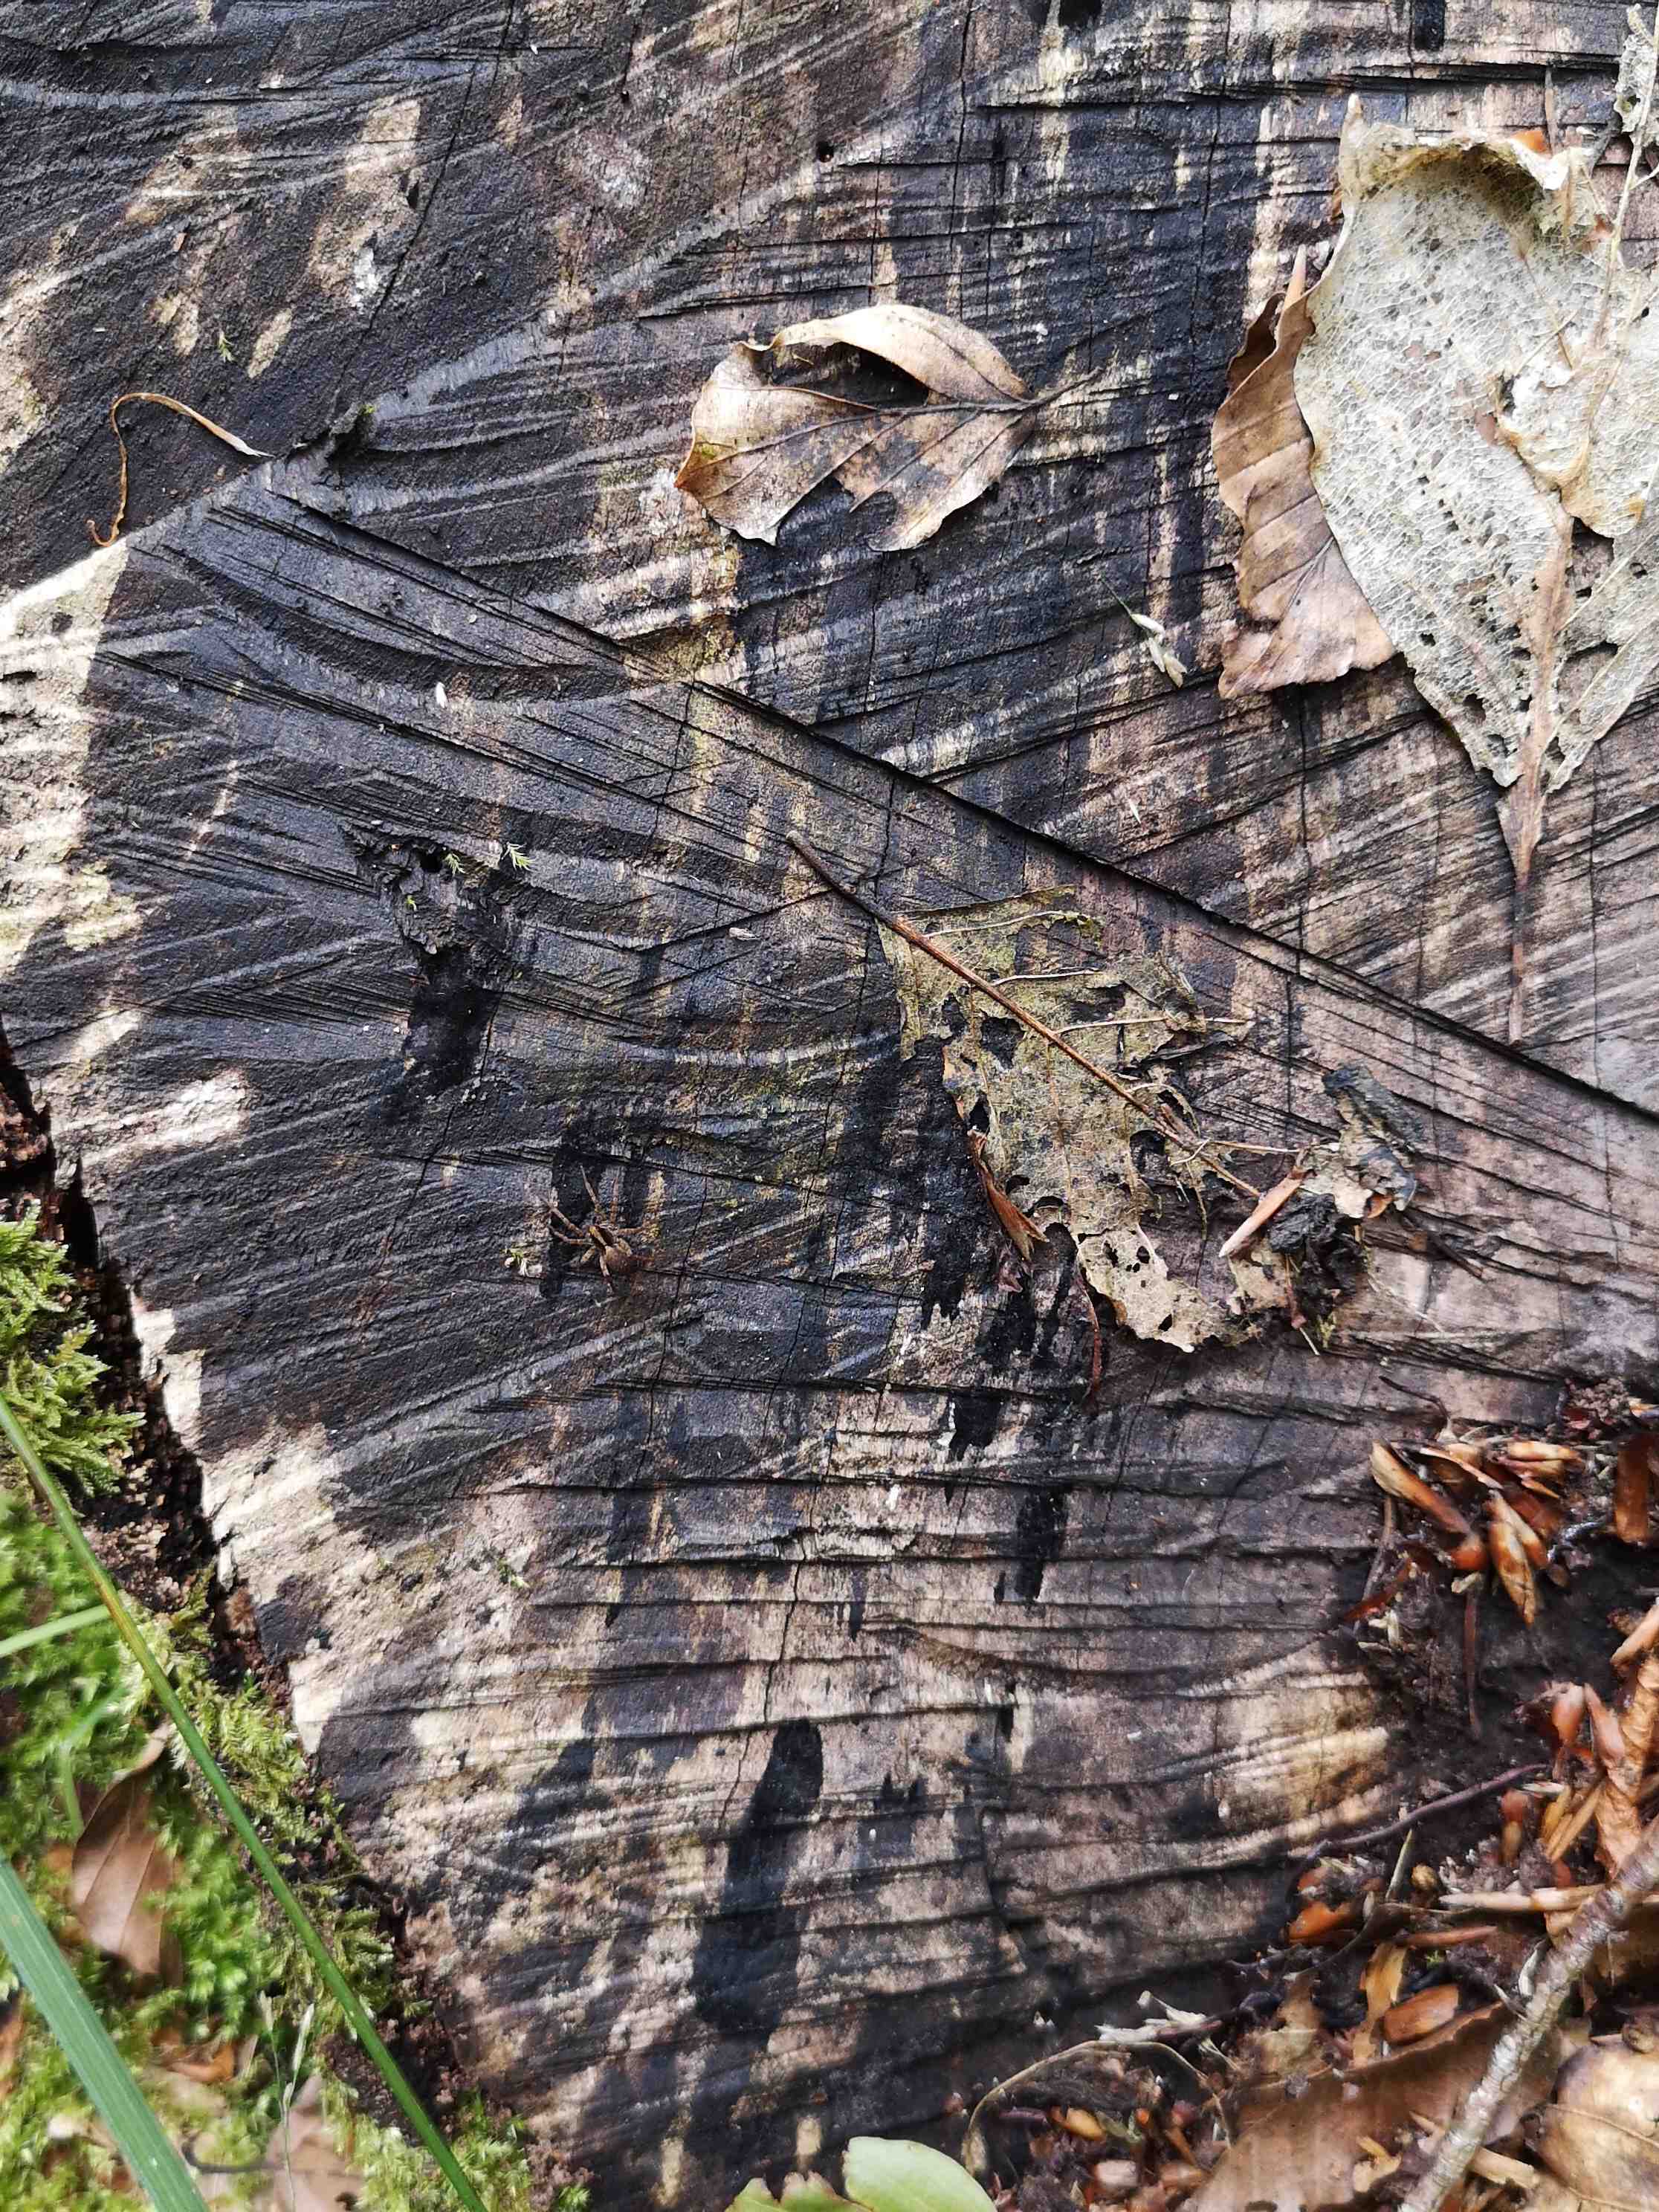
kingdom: Fungi
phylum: Ascomycota
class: Leotiomycetes
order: Helotiales
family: Helotiaceae
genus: Bispora
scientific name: Bispora pallescens
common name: måtte-snitskive
